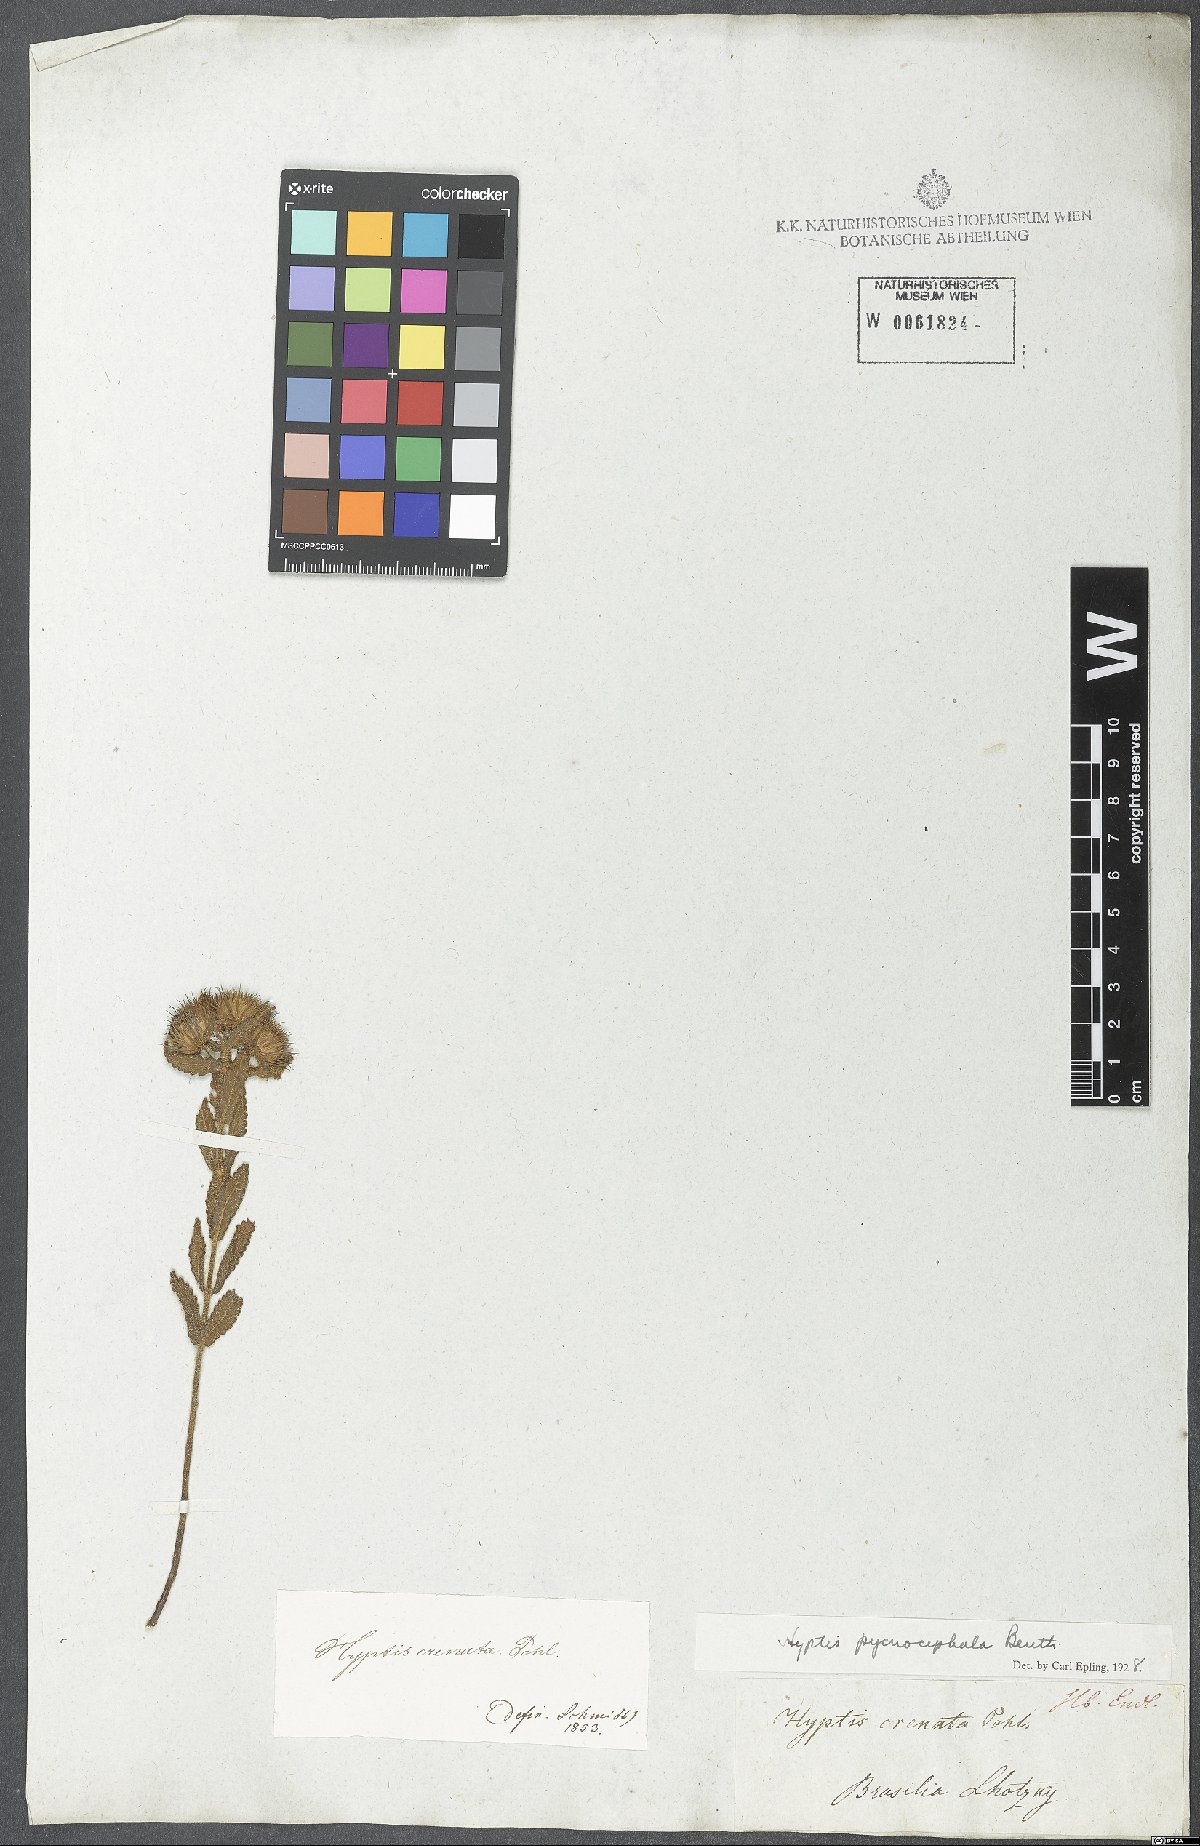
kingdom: Plantae
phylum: Tracheophyta
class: Magnoliopsida
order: Lamiales
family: Lamiaceae
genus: Hyptis
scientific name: Hyptis pycnocephala
